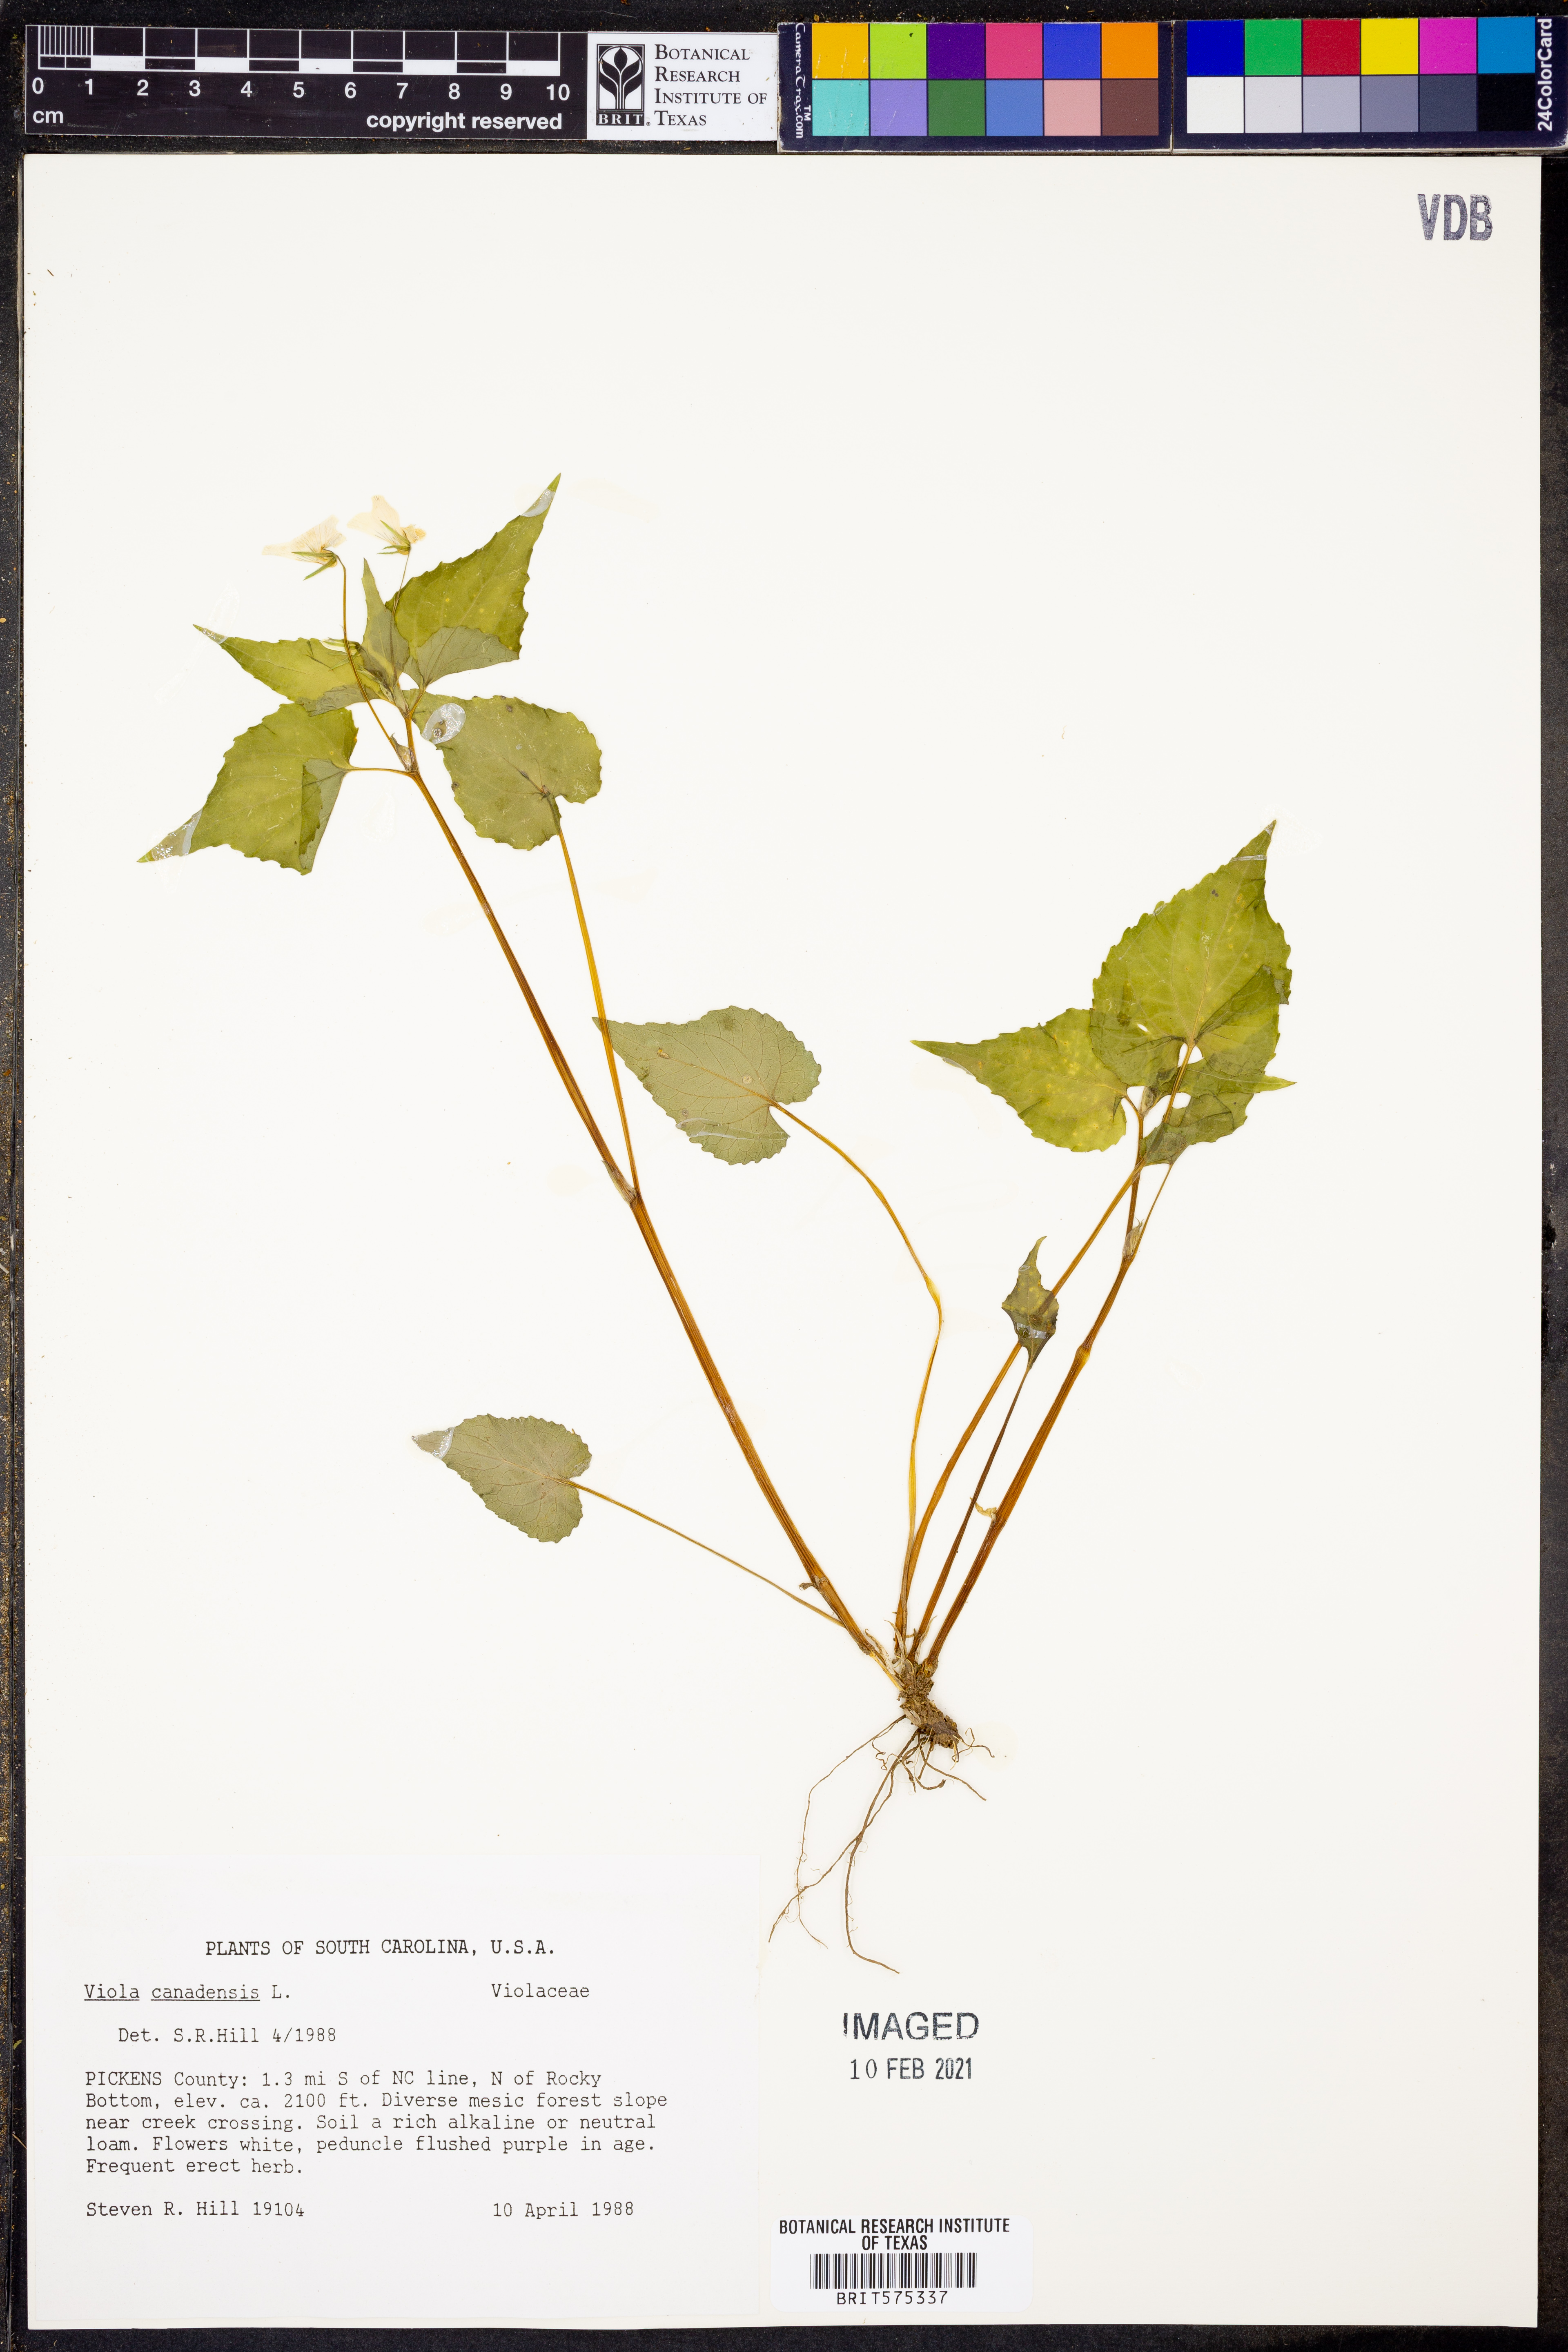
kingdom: Plantae
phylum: Tracheophyta
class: Magnoliopsida
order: Malpighiales
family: Violaceae
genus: Viola
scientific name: Viola canadensis
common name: Canada violet
